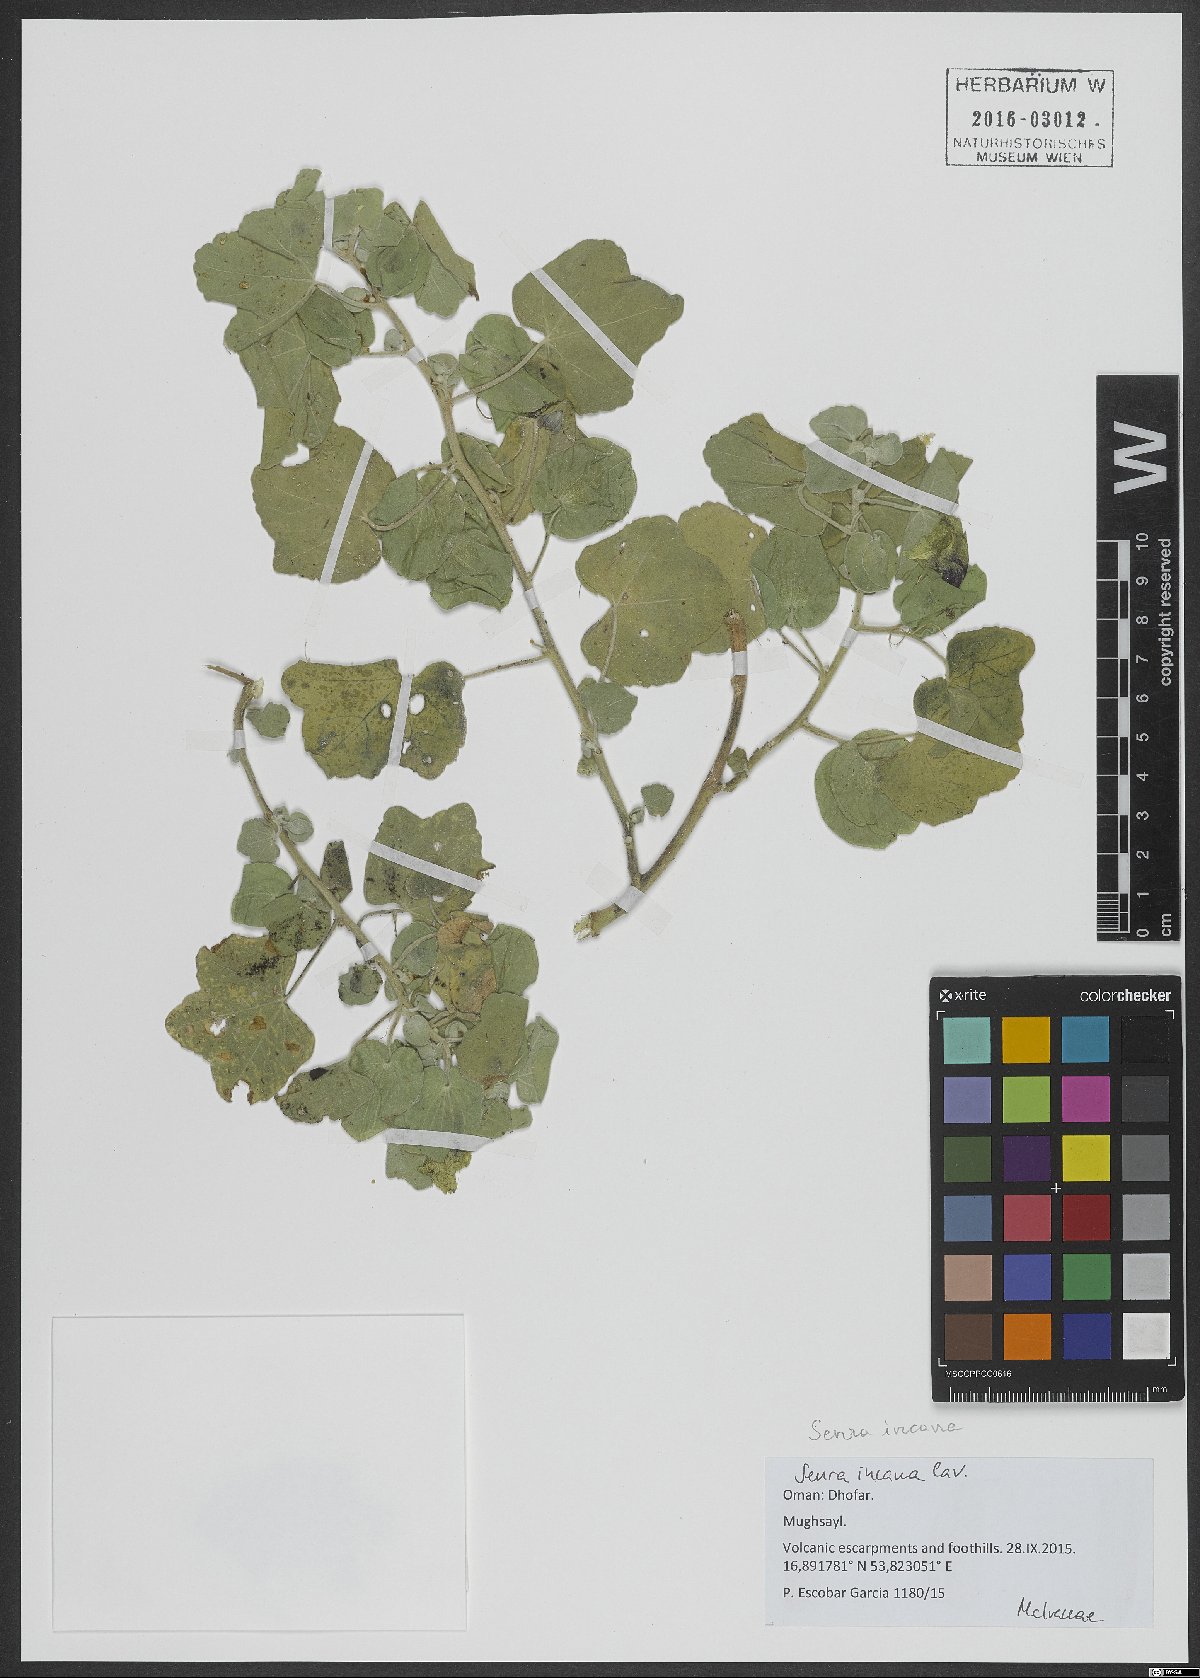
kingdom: Plantae
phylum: Tracheophyta
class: Magnoliopsida
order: Malvales
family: Malvaceae
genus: Senra
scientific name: Senra incana
